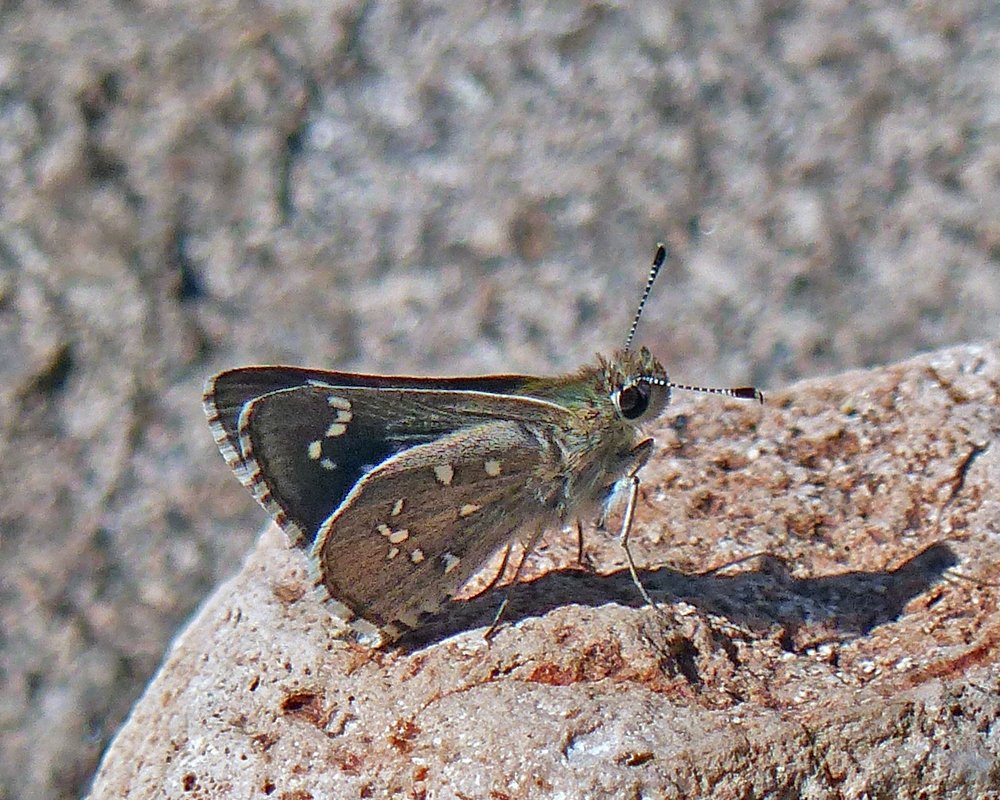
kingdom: Animalia
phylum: Arthropoda
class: Insecta
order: Lepidoptera
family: Hesperiidae
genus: Mastor
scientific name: Mastor eos
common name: Dotted Roadside-Skipper
